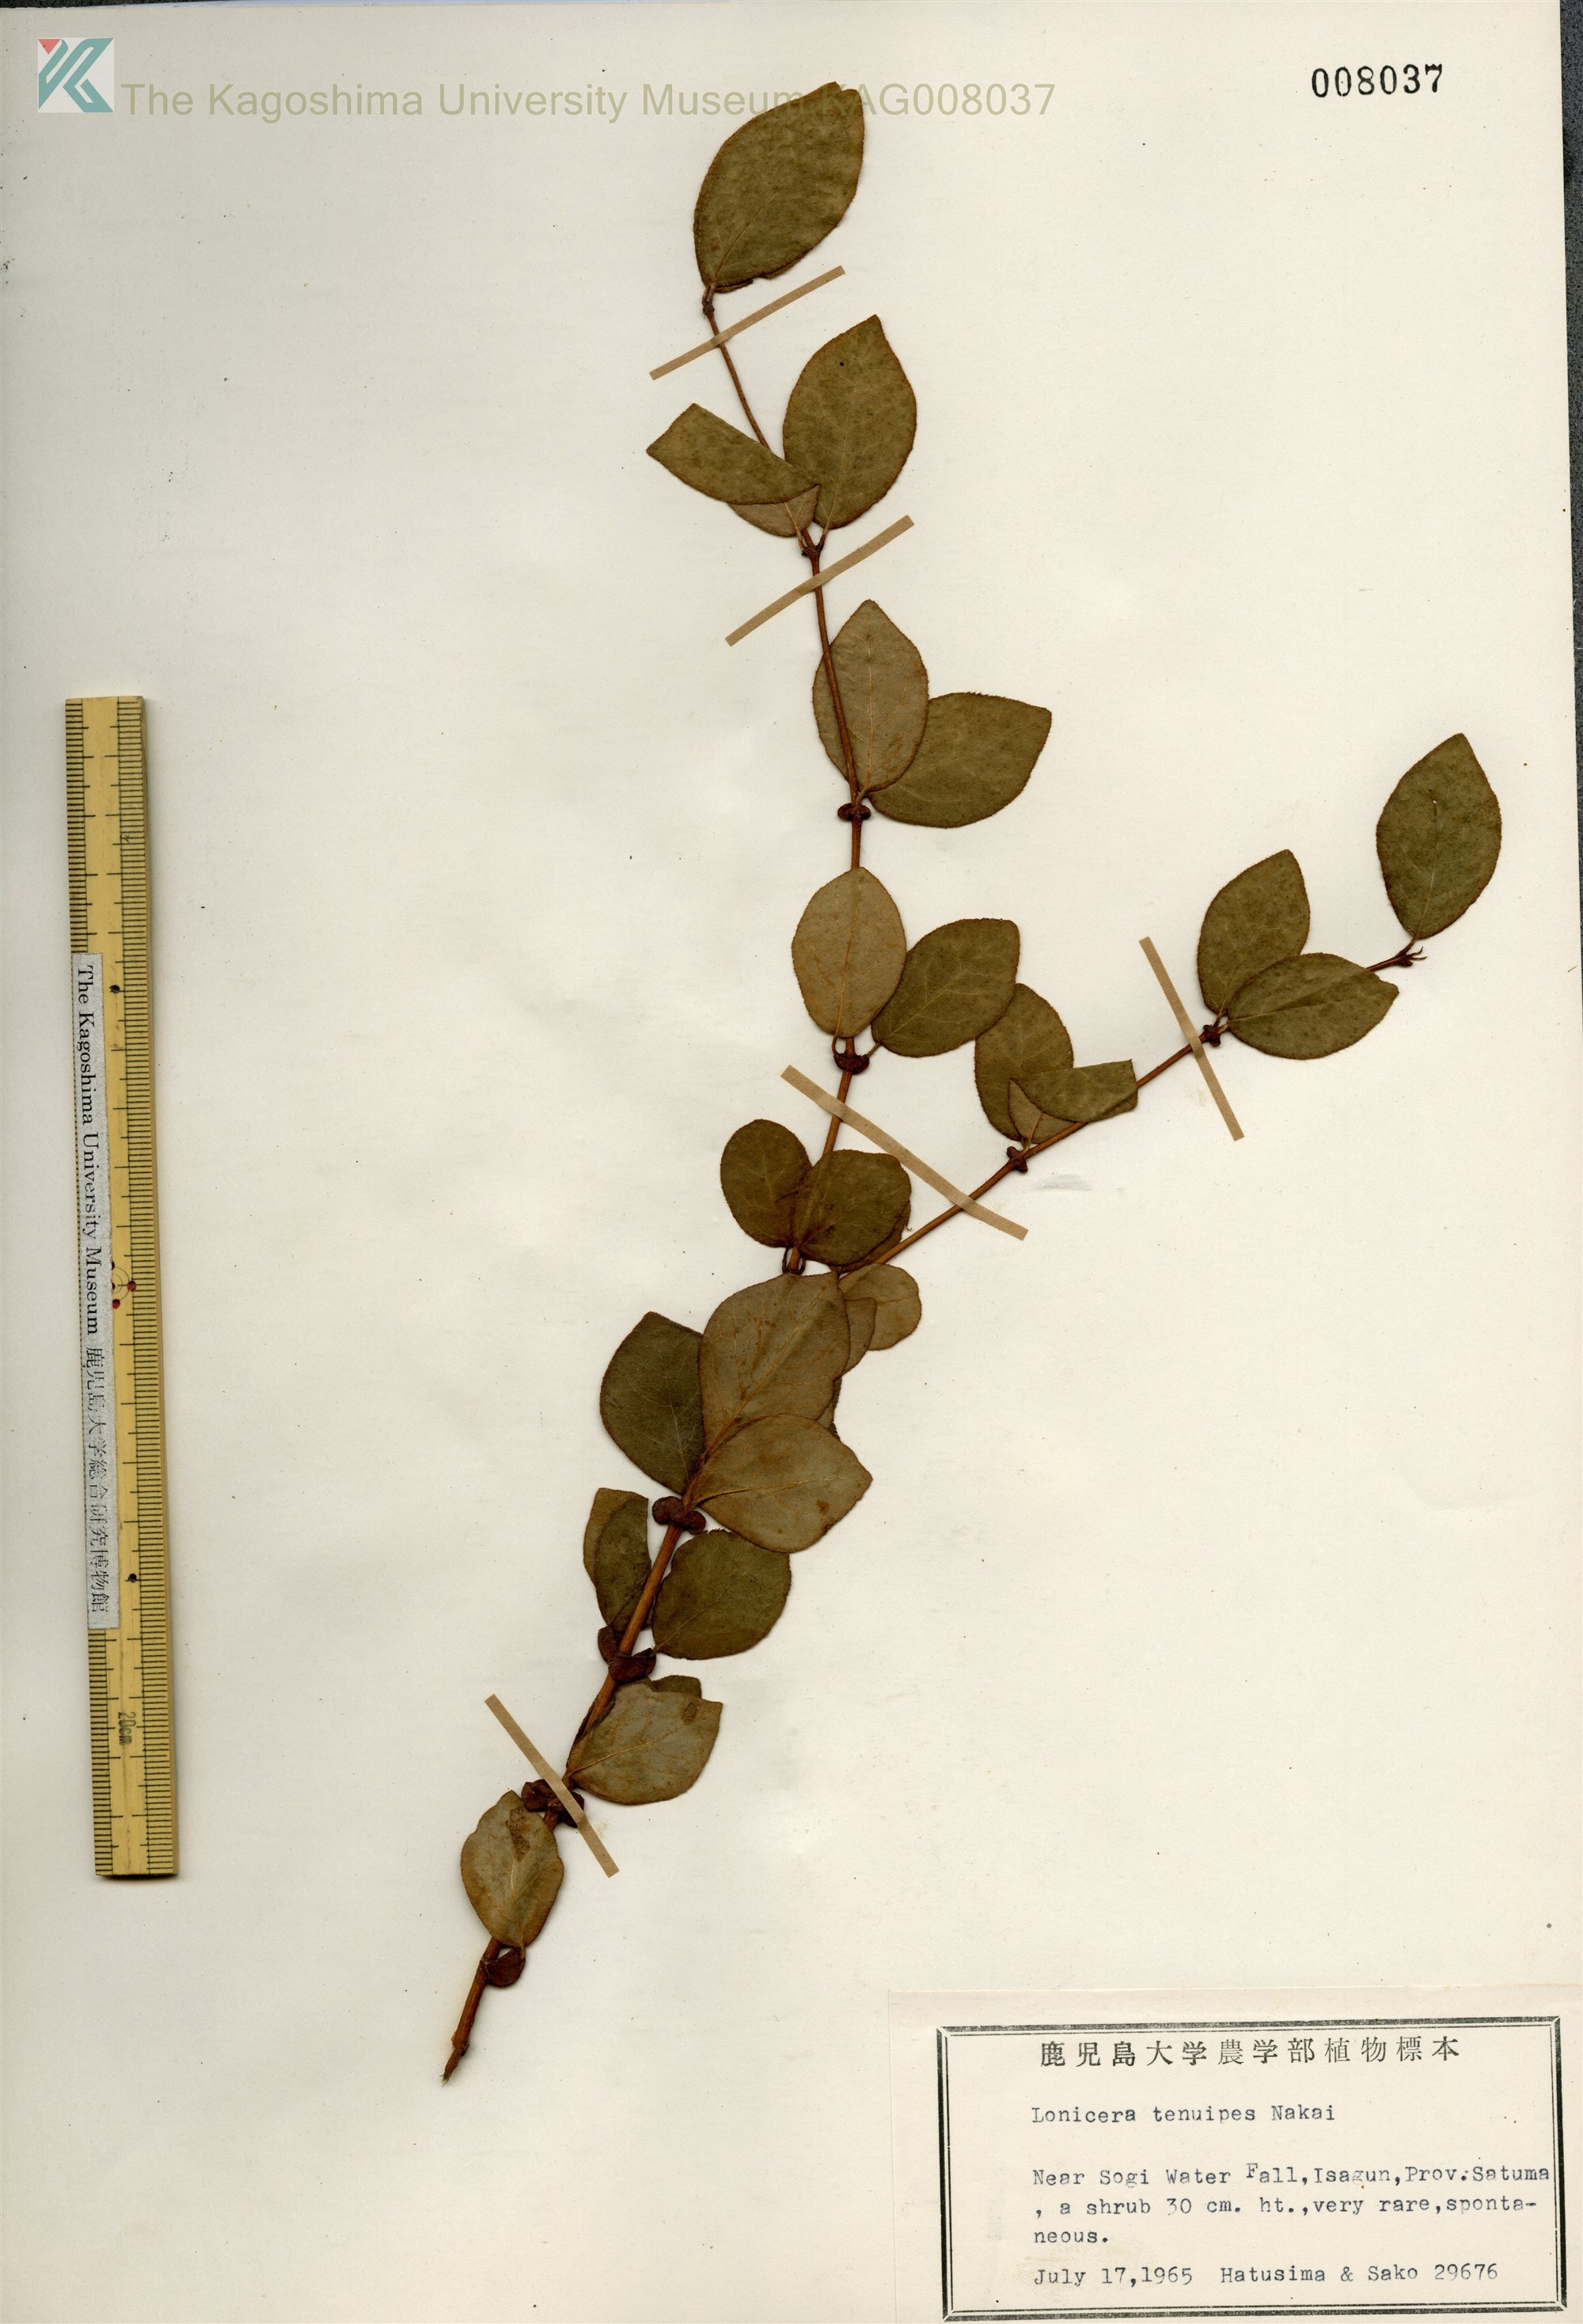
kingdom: Plantae
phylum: Tracheophyta
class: Magnoliopsida
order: Dipsacales
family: Caprifoliaceae
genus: Lonicera
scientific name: Lonicera gracilipes
